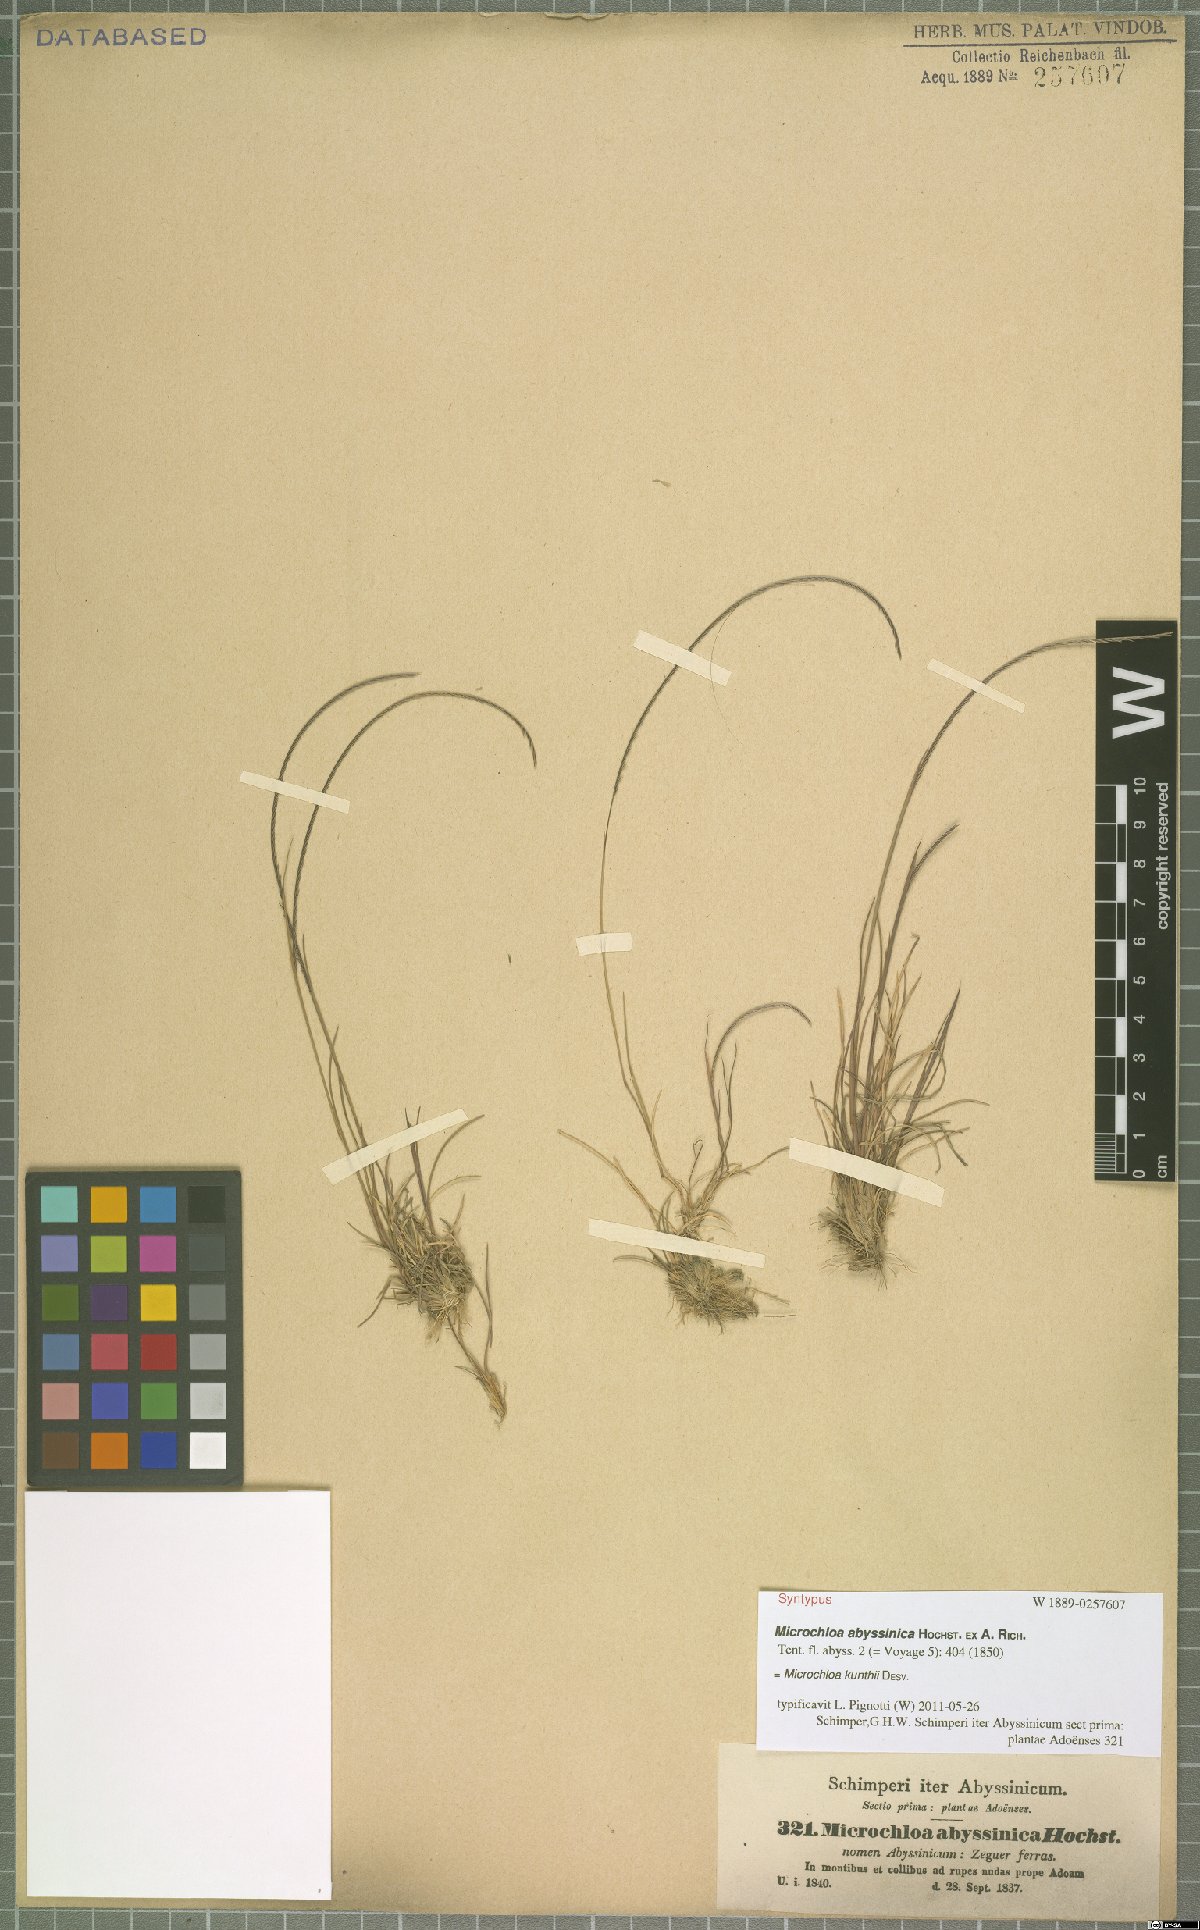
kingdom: Plantae
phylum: Tracheophyta
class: Liliopsida
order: Poales
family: Poaceae
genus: Microchloa
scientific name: Microchloa kunthii
